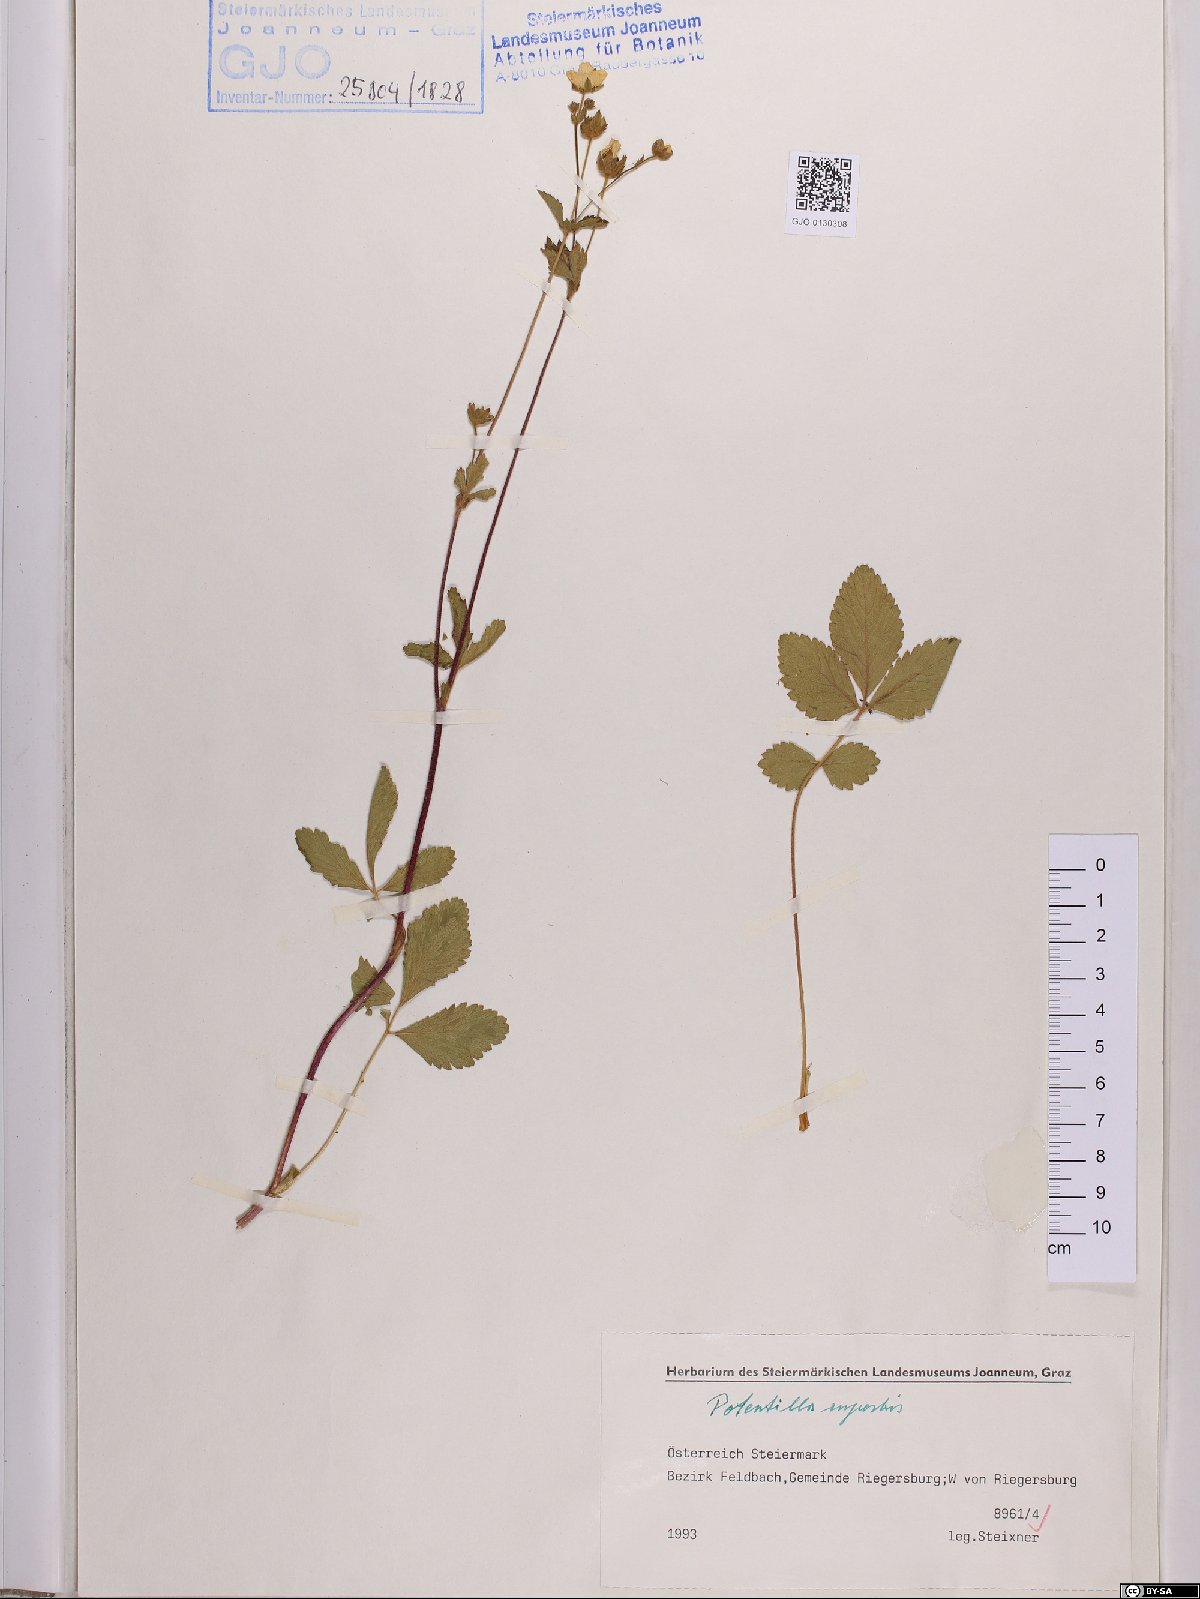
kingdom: Plantae
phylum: Tracheophyta
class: Magnoliopsida
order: Rosales
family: Rosaceae
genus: Drymocallis
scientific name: Drymocallis rupestris
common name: Rock cinquefoil
